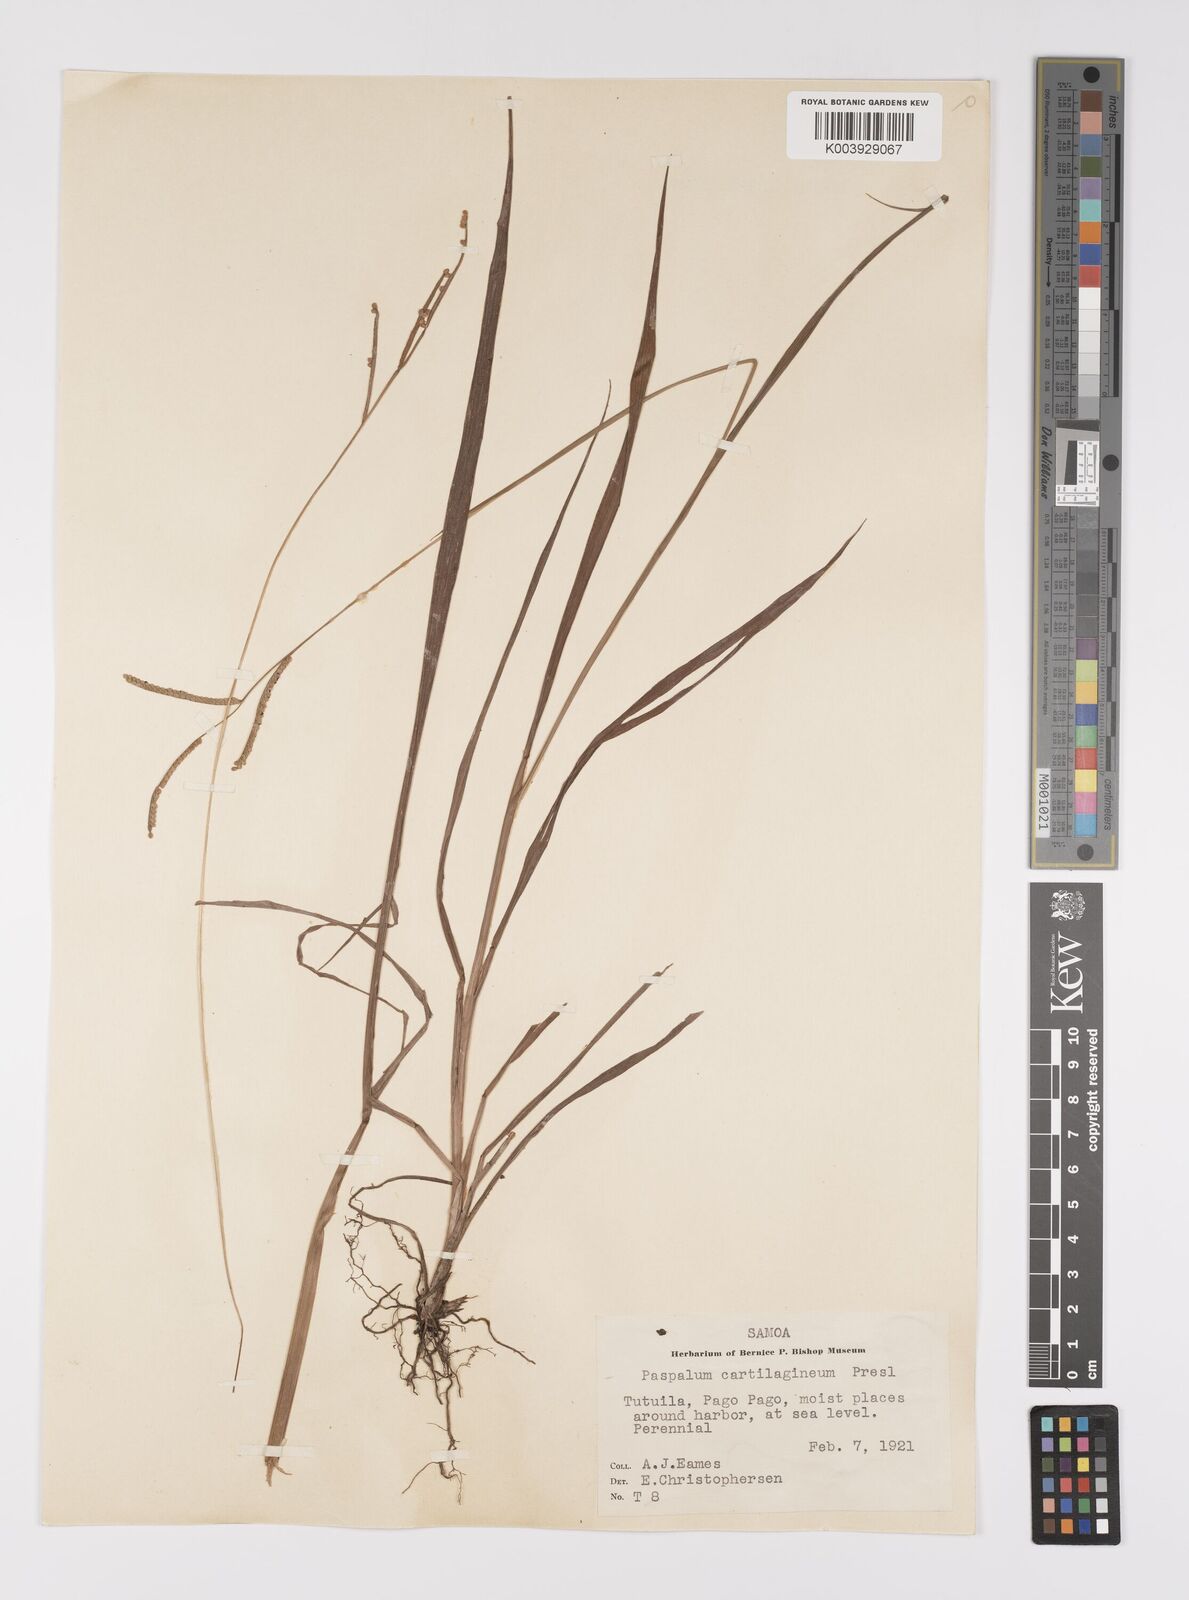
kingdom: Plantae
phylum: Tracheophyta
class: Liliopsida
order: Poales
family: Poaceae
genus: Paspalum
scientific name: Paspalum scrobiculatum
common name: Kodo millet
